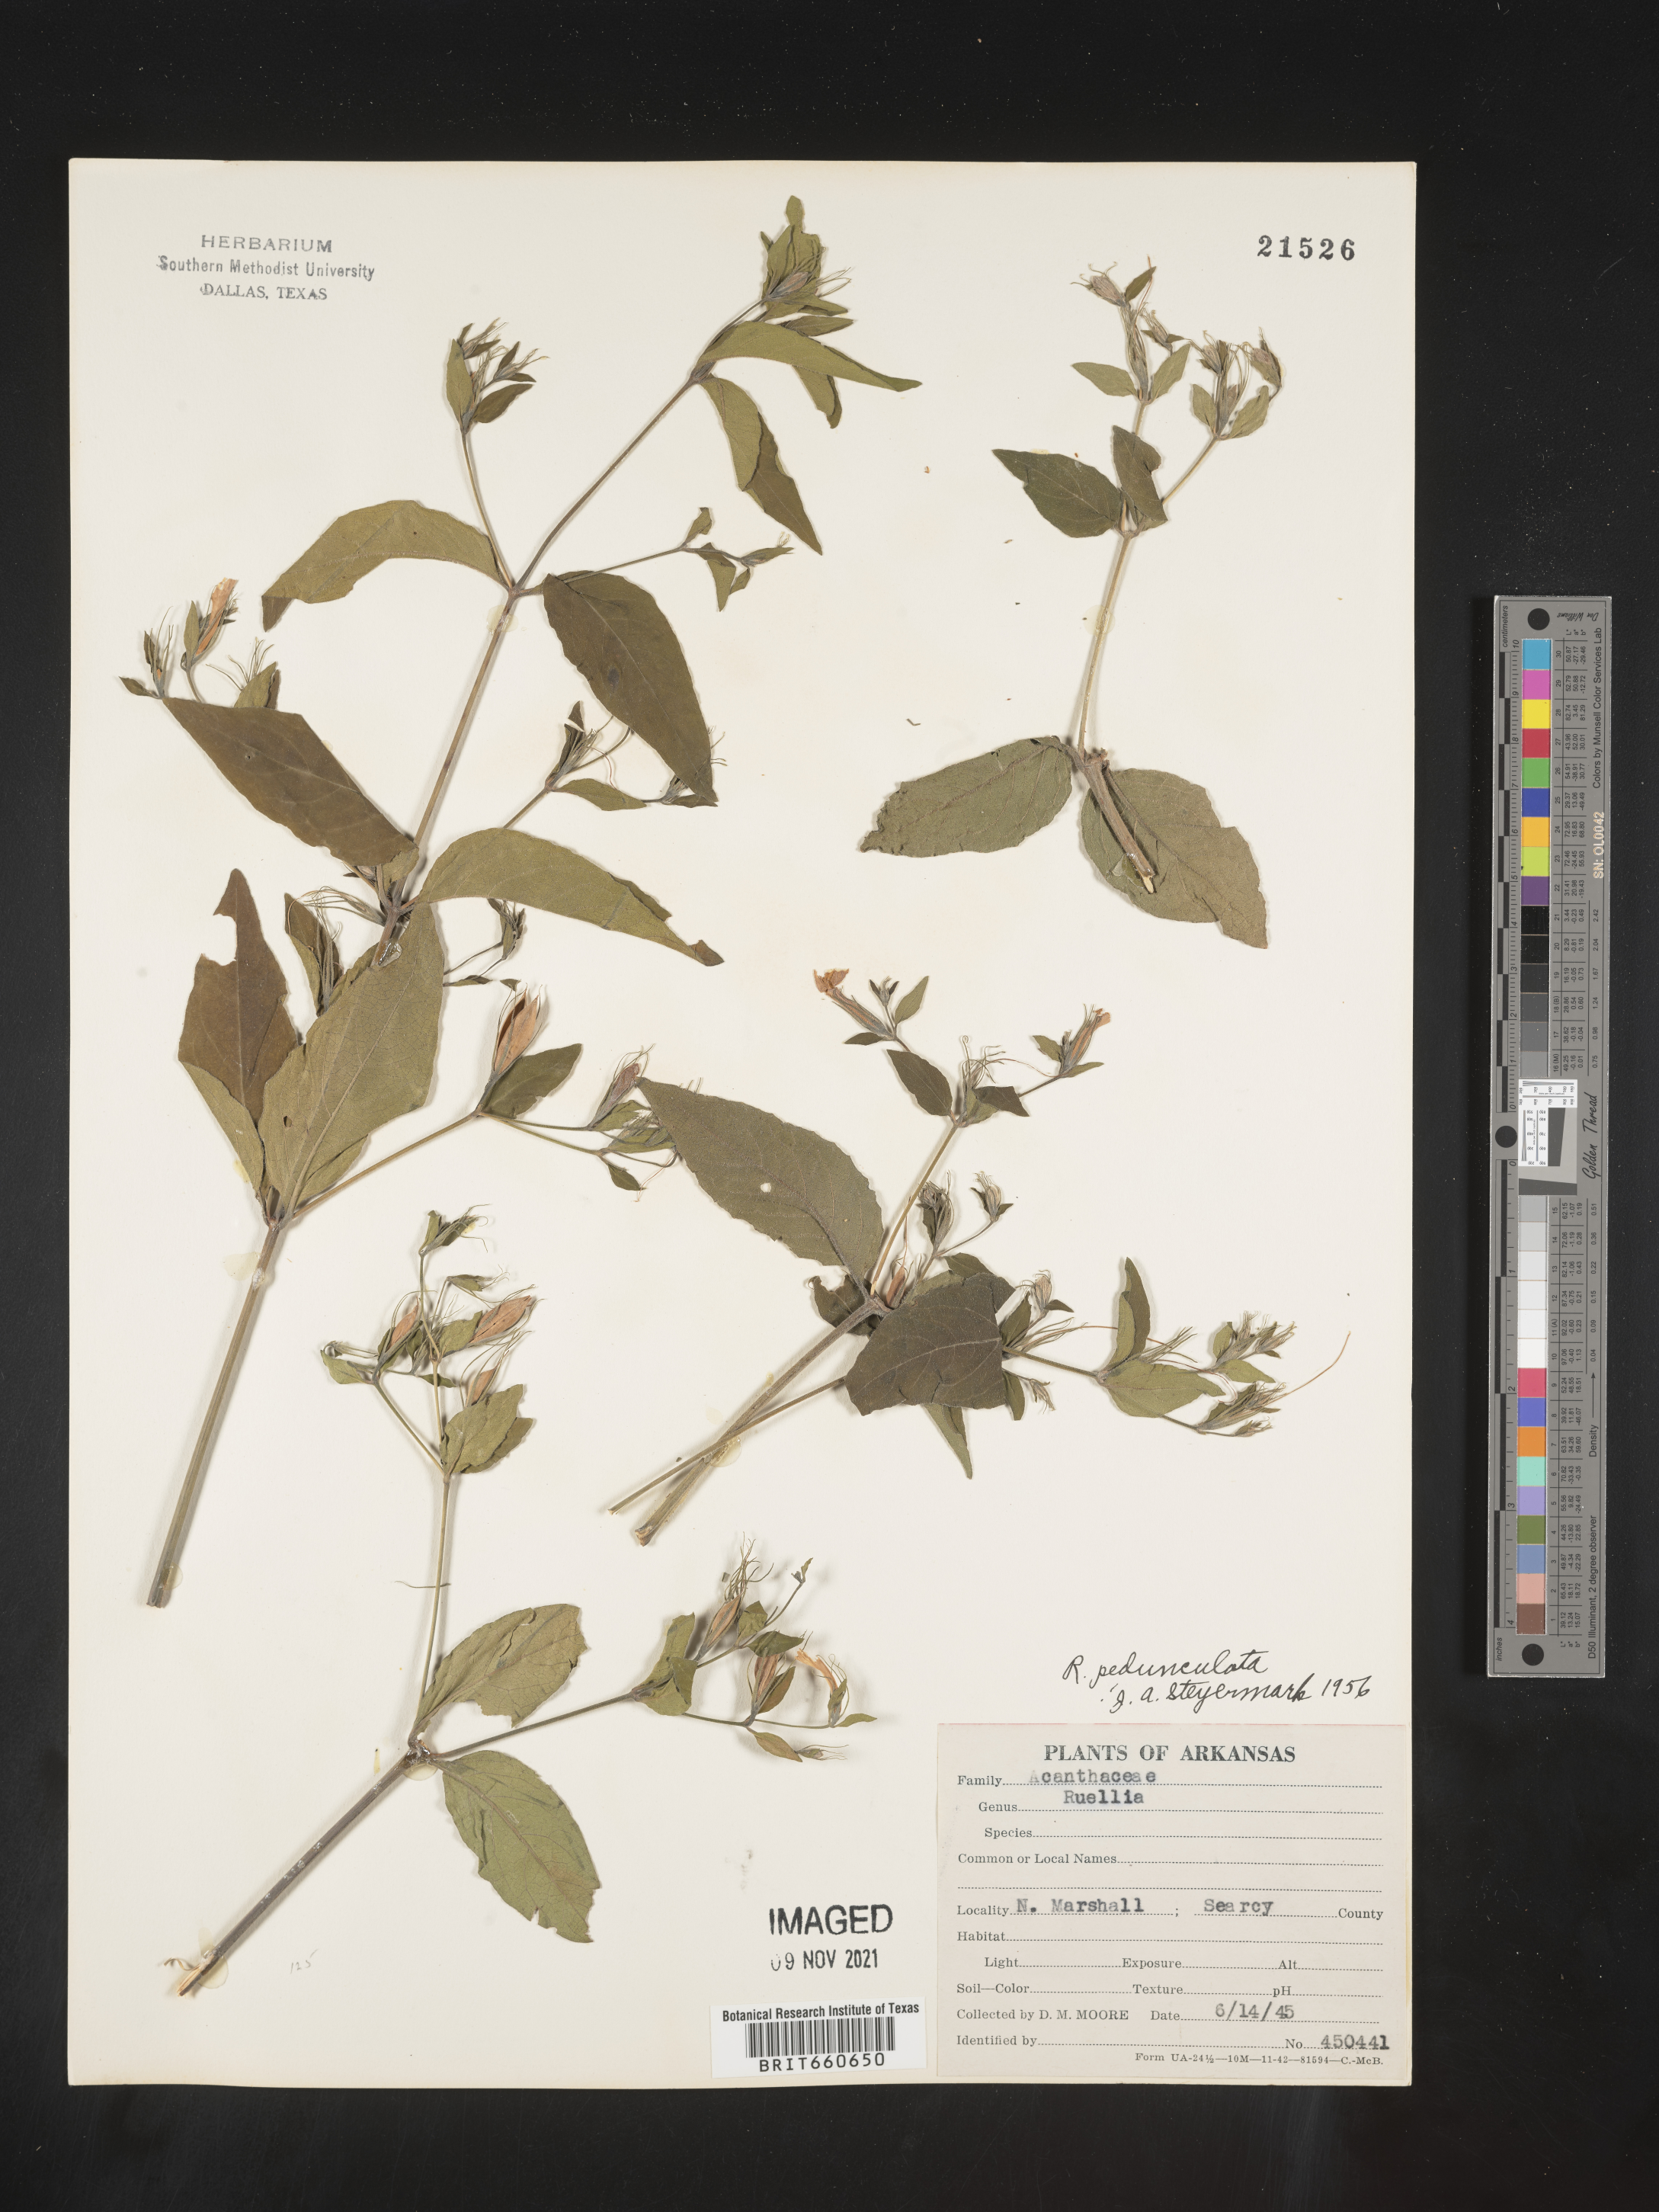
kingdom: Plantae
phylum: Tracheophyta
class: Magnoliopsida
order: Lamiales
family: Acanthaceae
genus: Ruellia
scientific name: Ruellia pedunculata
